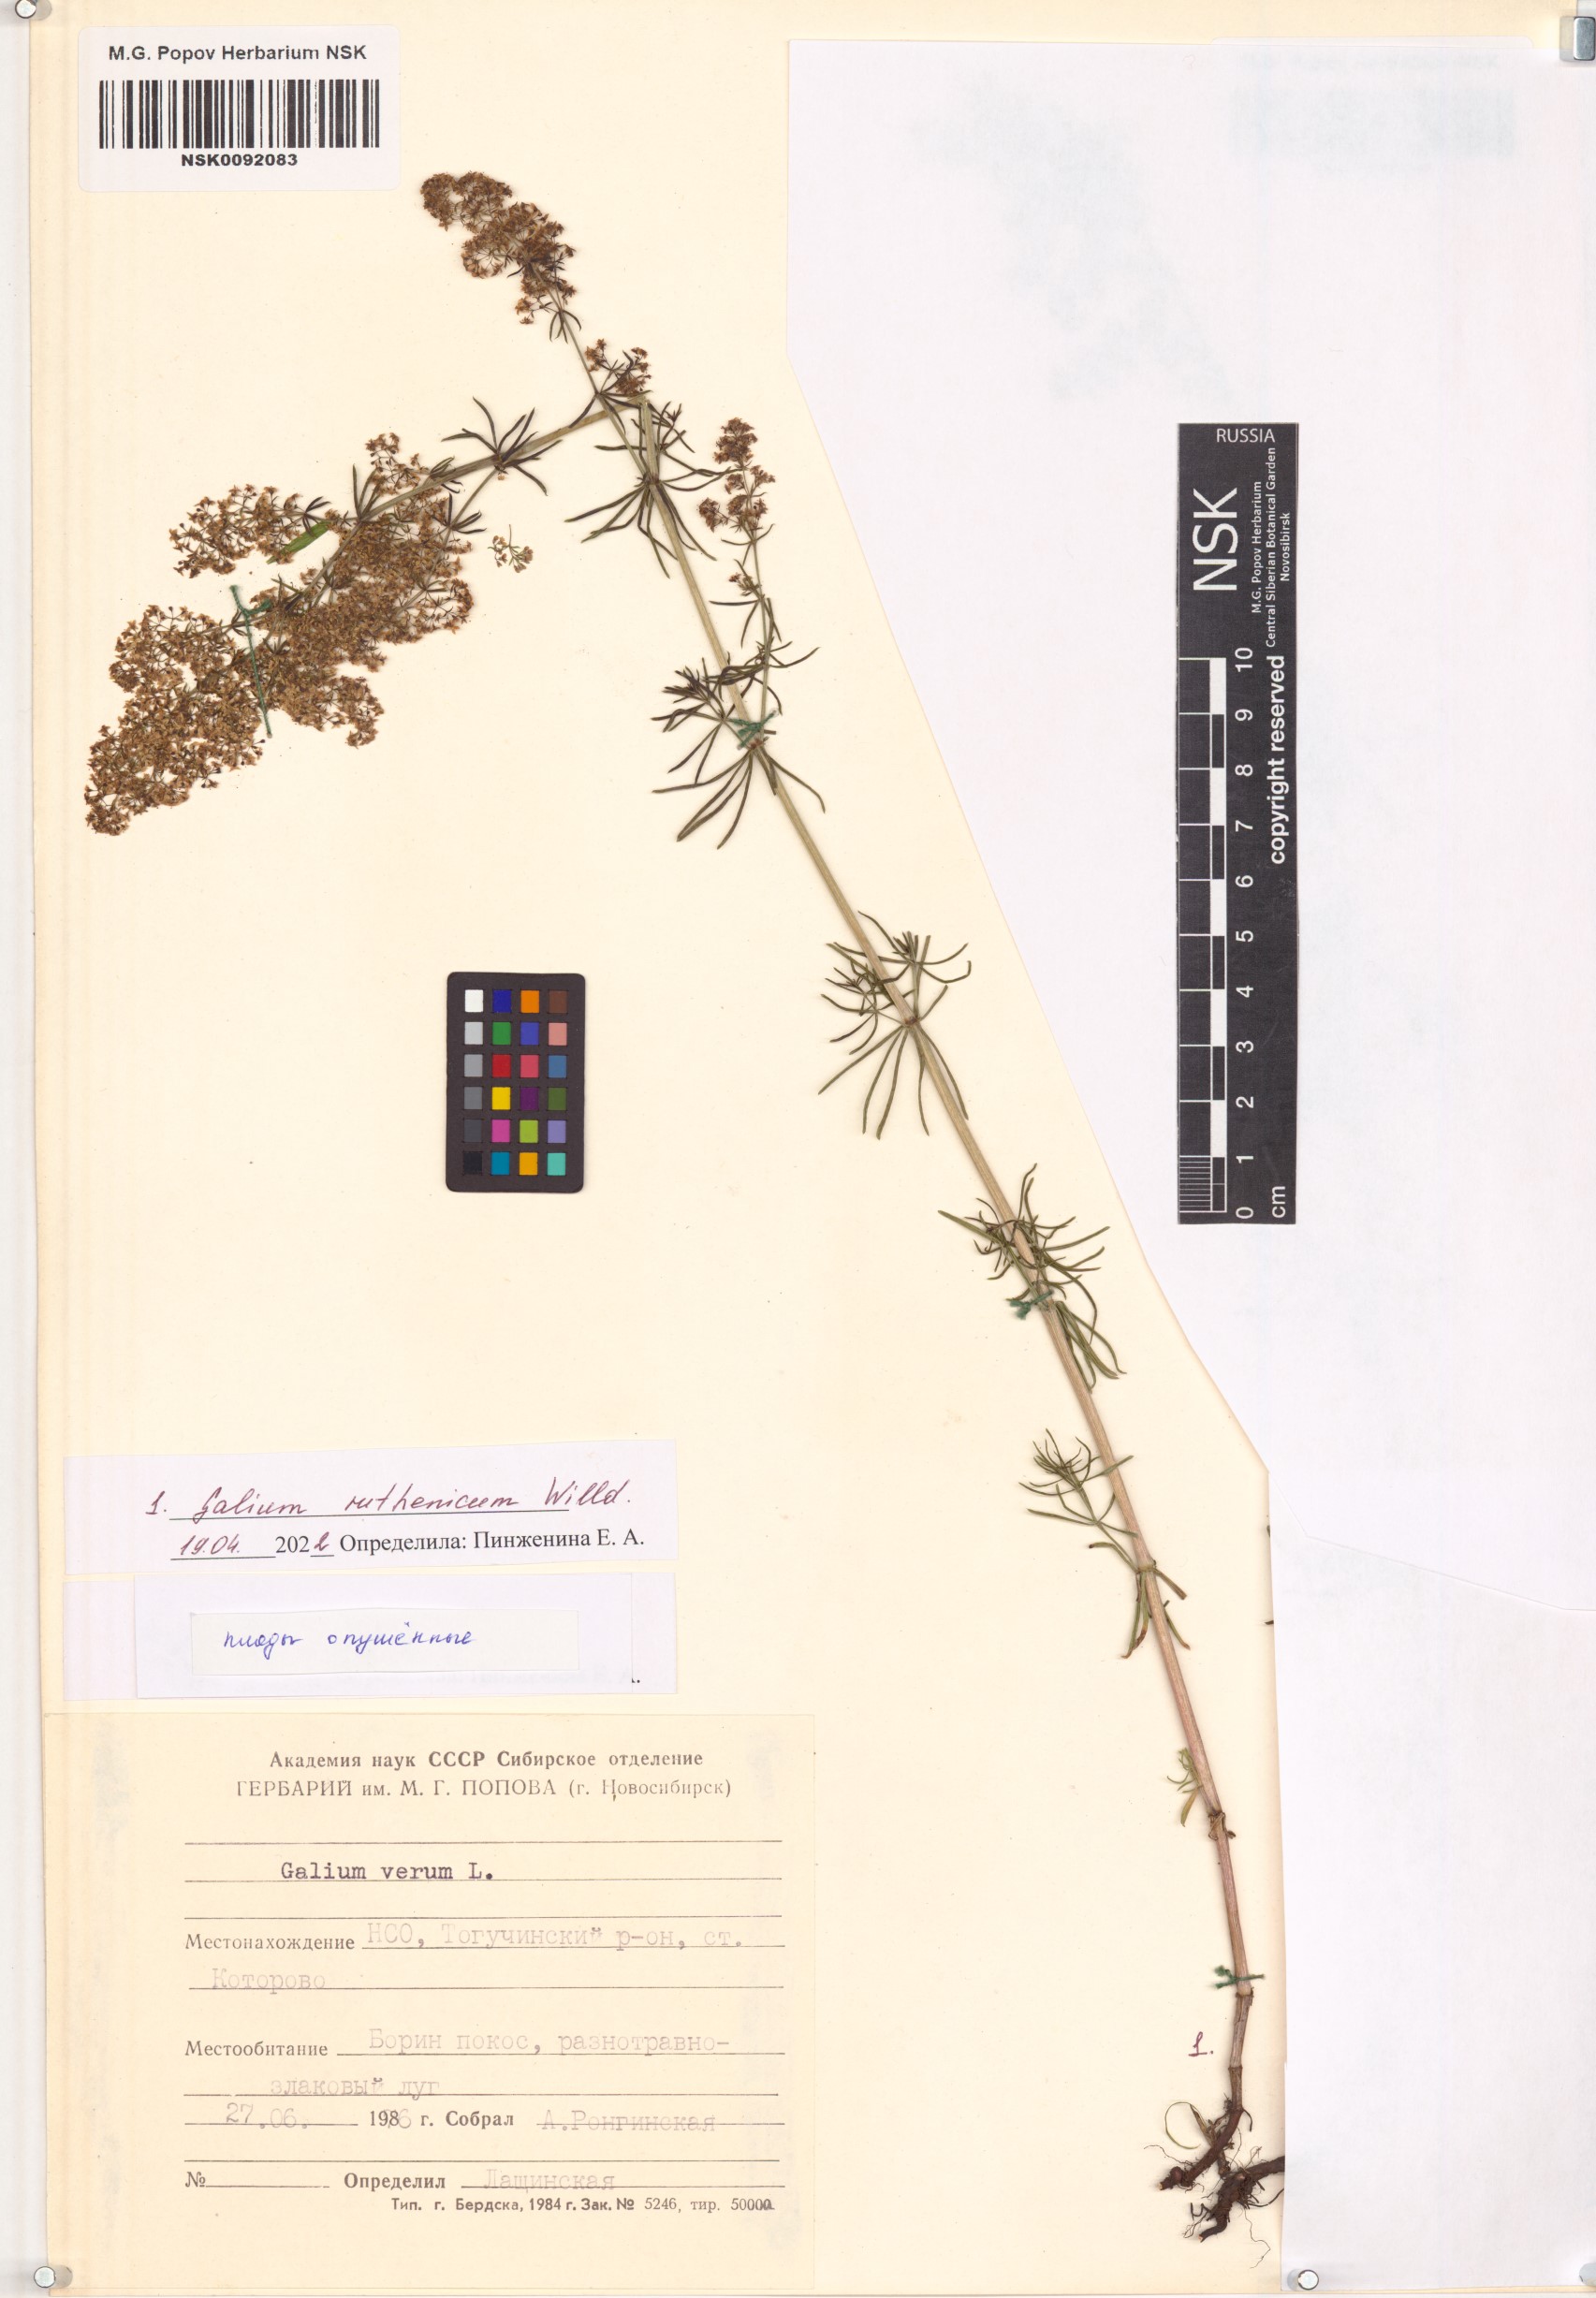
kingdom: Plantae
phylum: Tracheophyta
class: Magnoliopsida
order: Gentianales
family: Rubiaceae
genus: Galium
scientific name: Galium verum
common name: Lady's bedstraw
